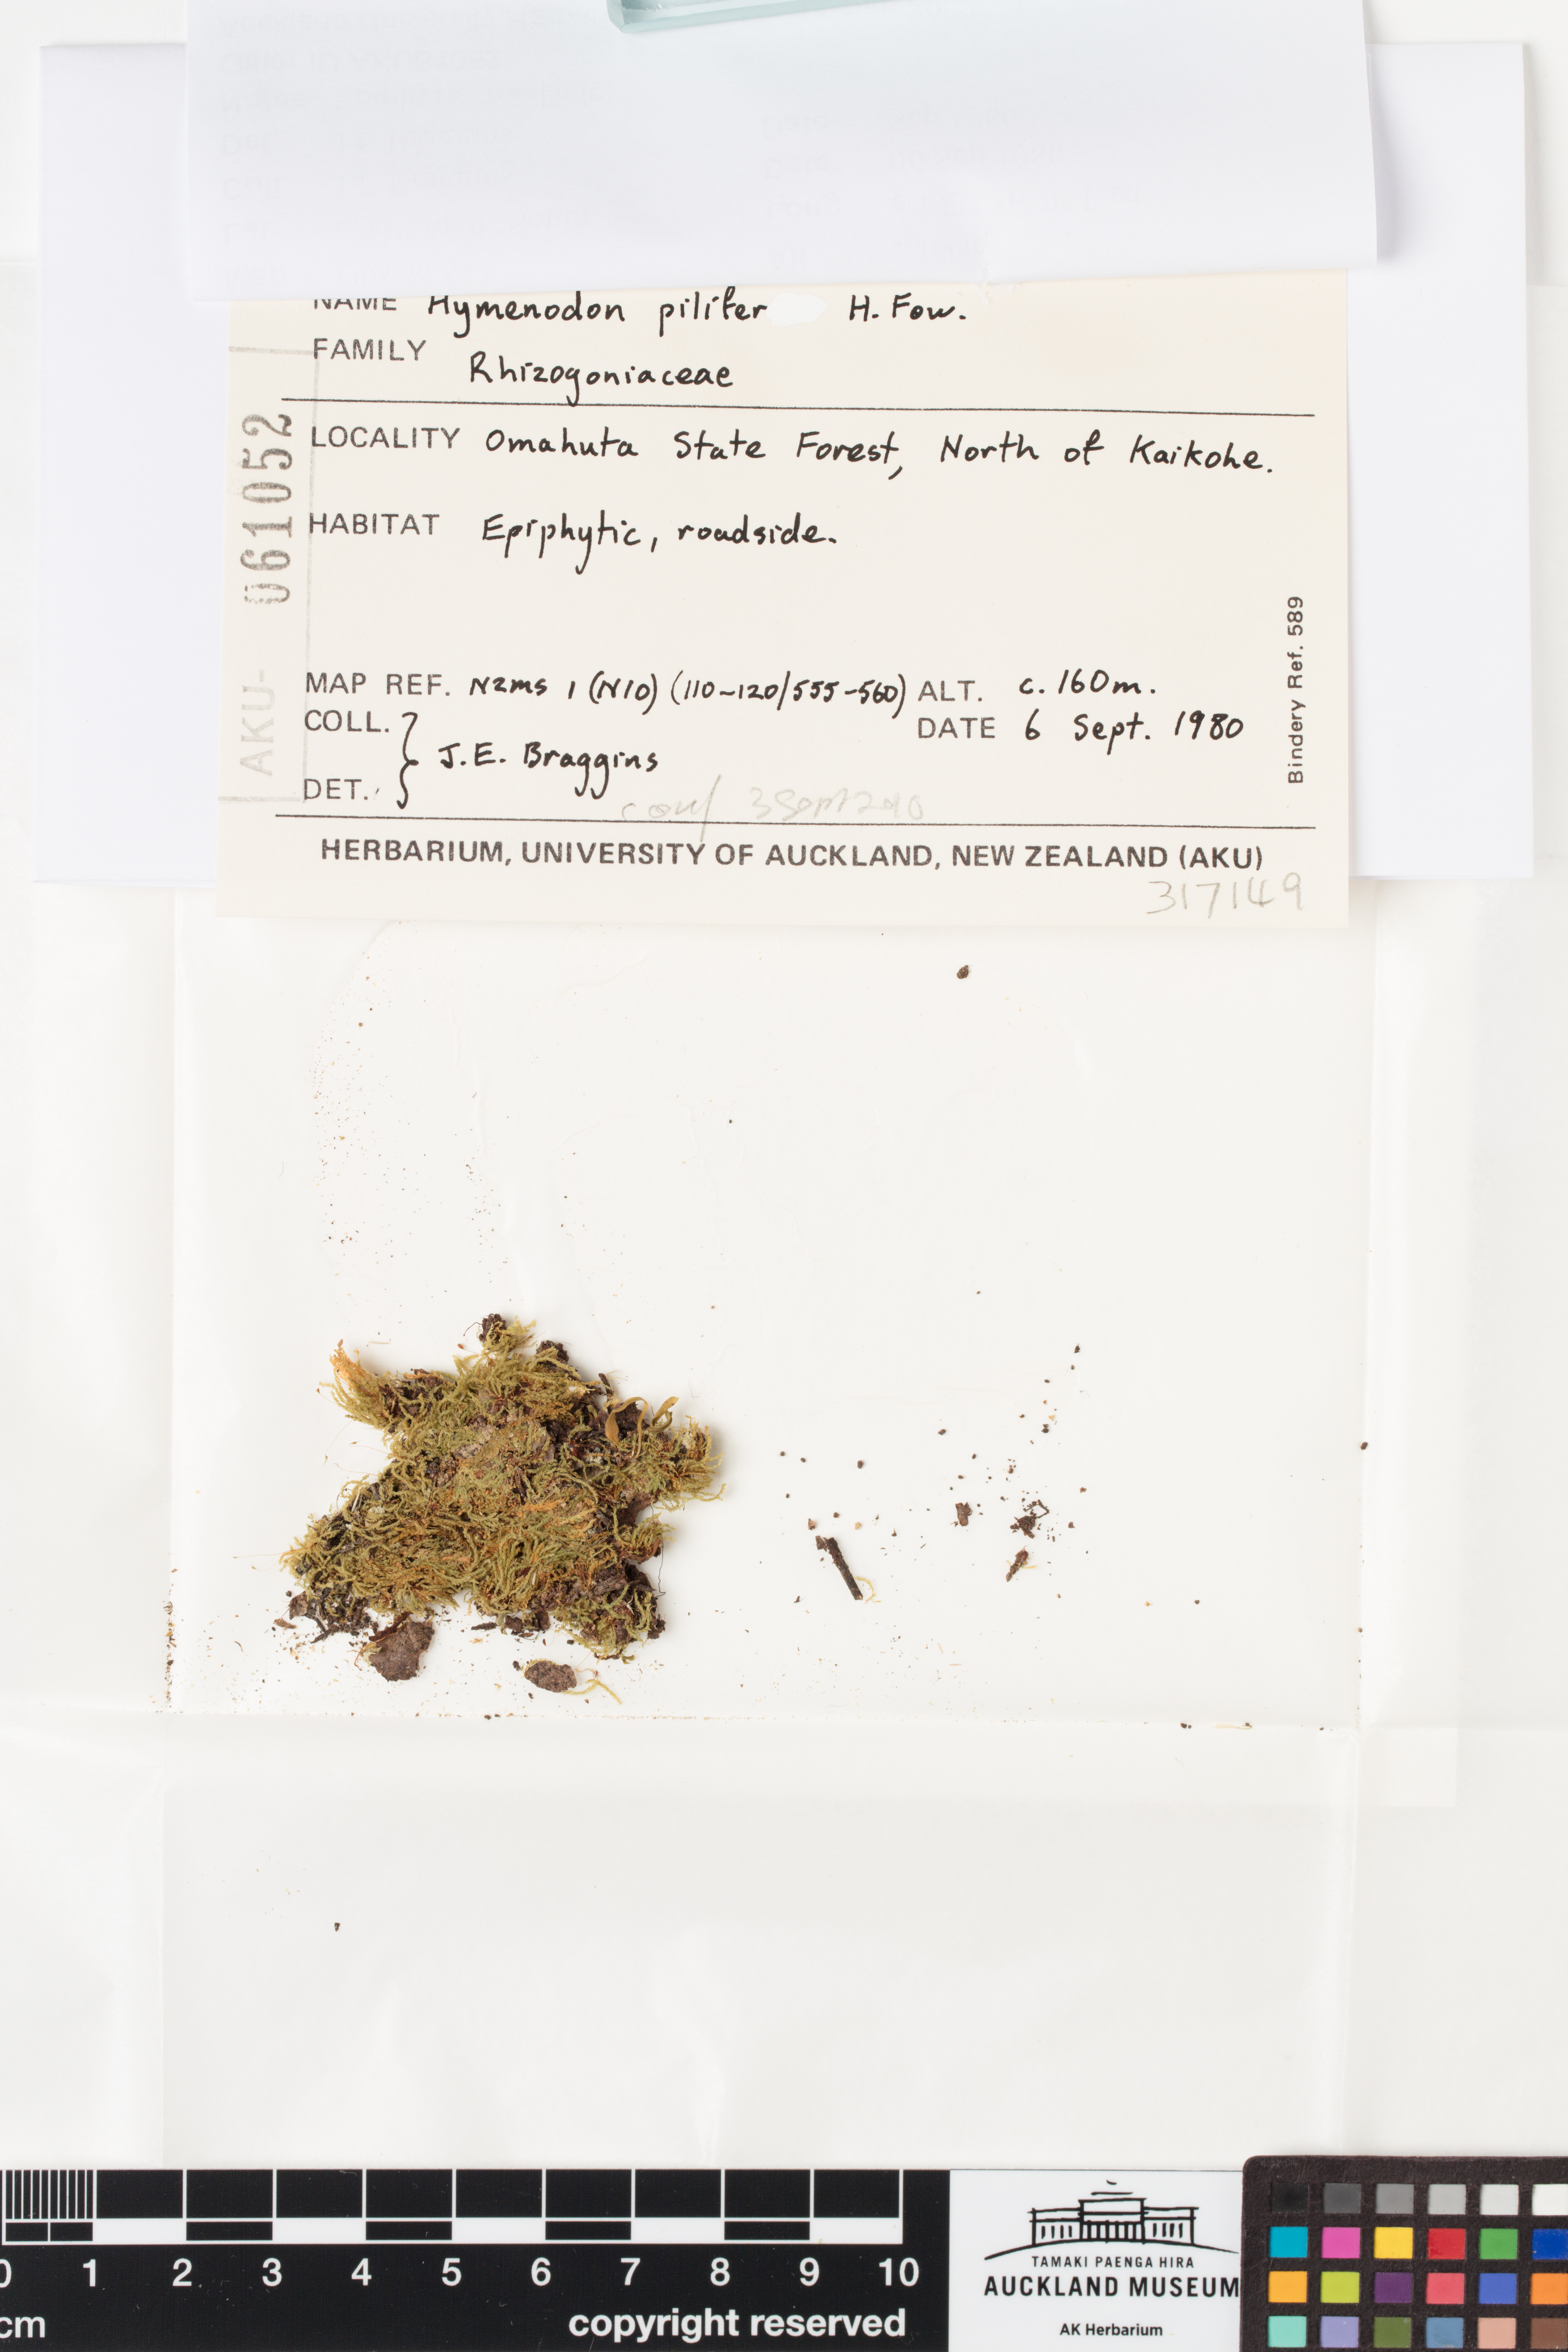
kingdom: Plantae
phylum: Bryophyta
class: Bryopsida
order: Orthodontiales
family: Orthodontiaceae
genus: Hymenodon
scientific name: Hymenodon pilifer
